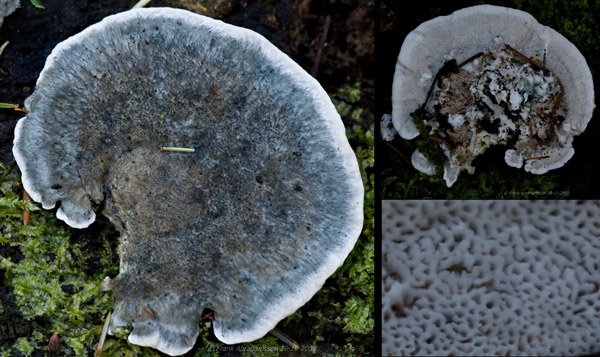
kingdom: Fungi
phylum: Basidiomycota
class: Agaricomycetes
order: Polyporales
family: Polyporaceae
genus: Cyanosporus
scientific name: Cyanosporus caesius
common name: blålig kødporesvamp
